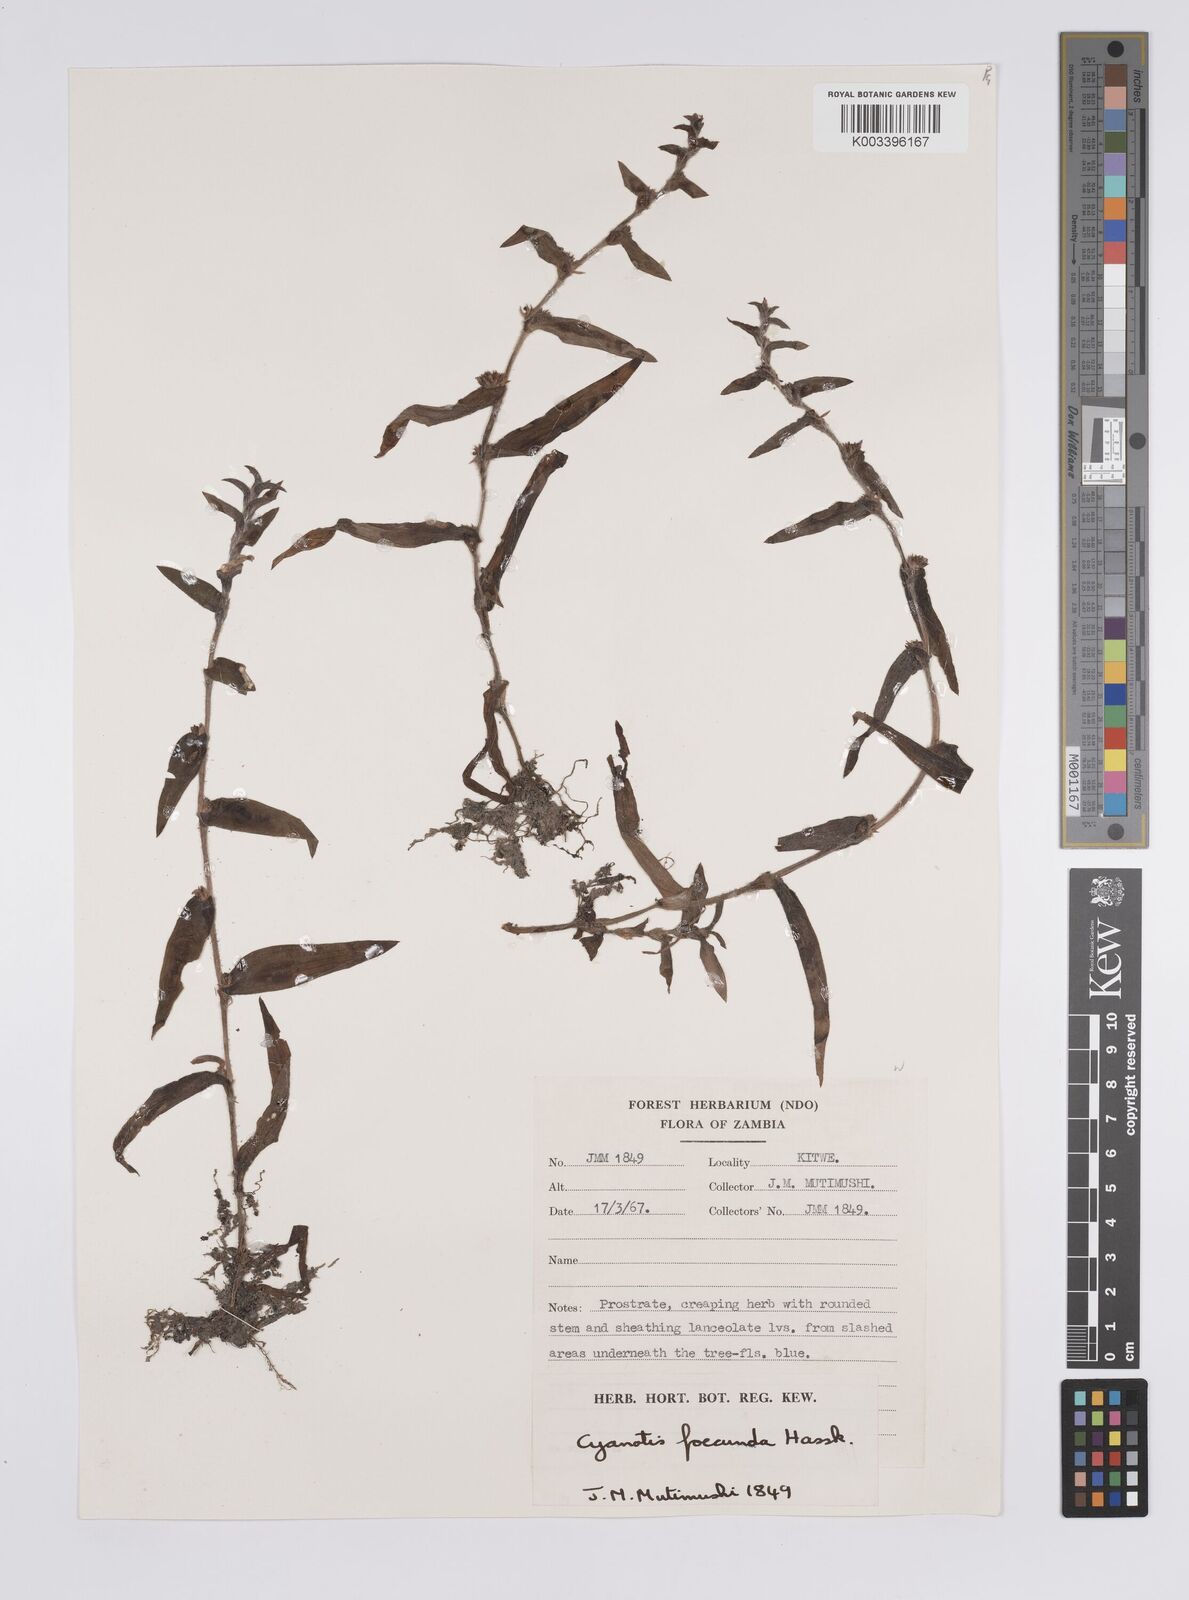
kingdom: Plantae
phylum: Tracheophyta
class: Liliopsida
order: Commelinales
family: Commelinaceae
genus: Cyanotis
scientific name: Cyanotis foecunda
